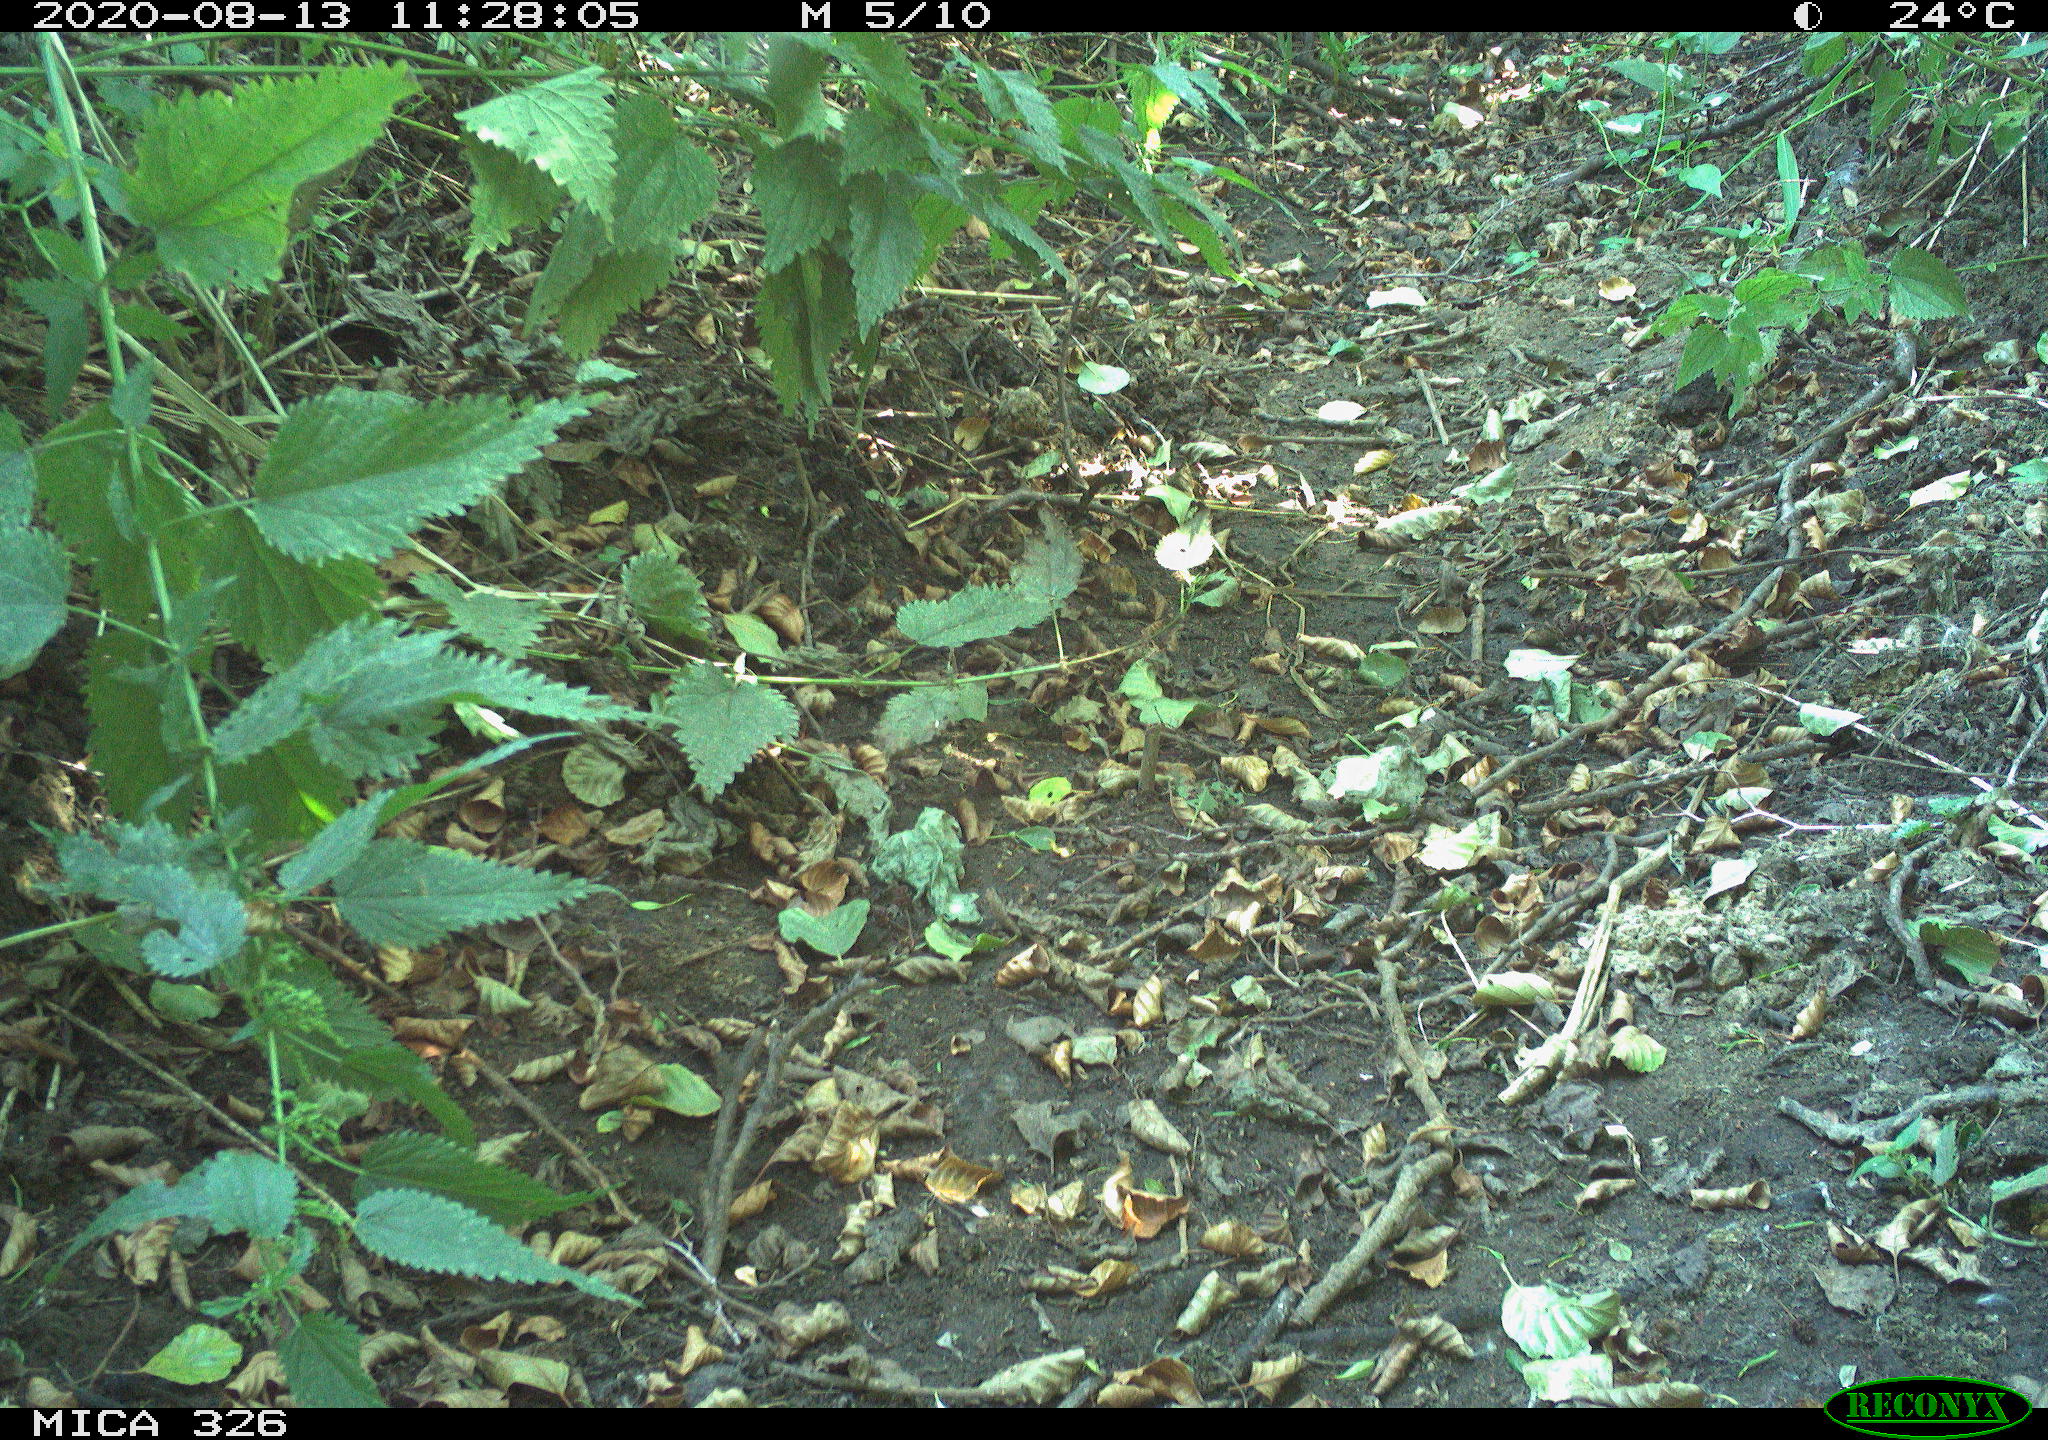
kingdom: Animalia
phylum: Chordata
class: Aves
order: Passeriformes
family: Turdidae
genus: Turdus
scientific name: Turdus merula
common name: Common blackbird
